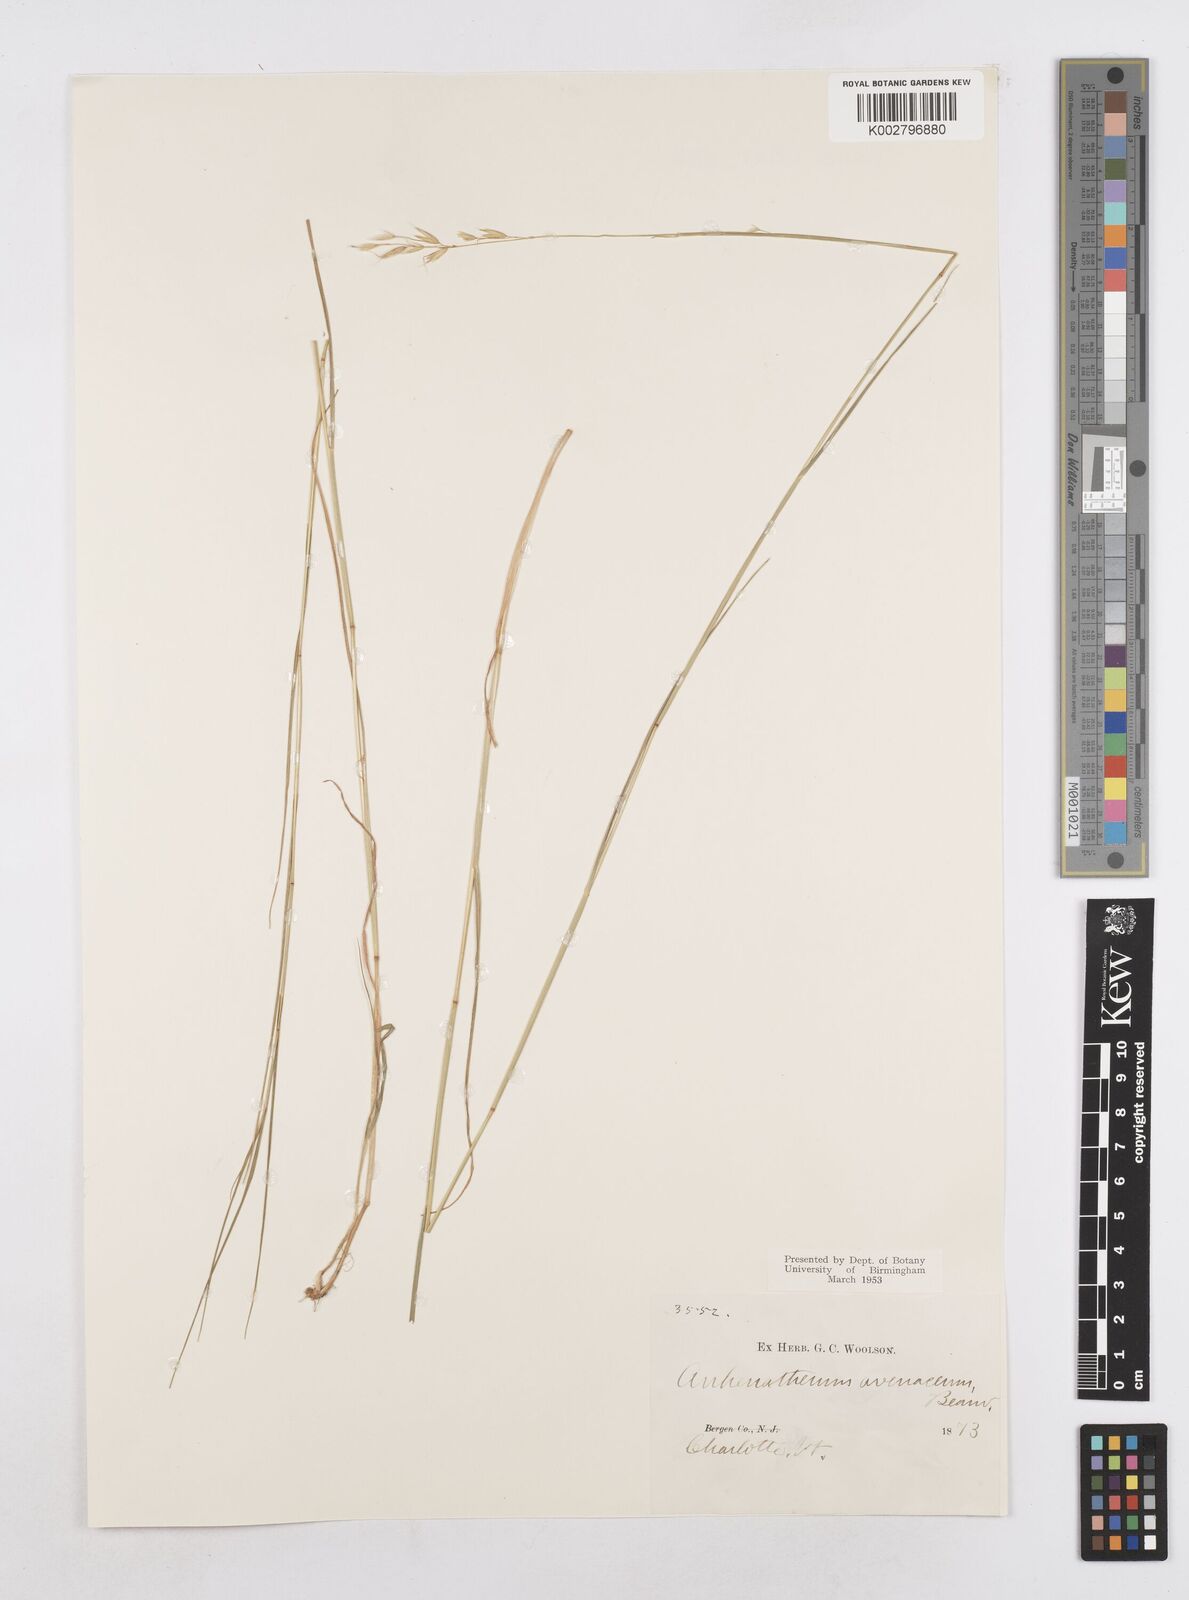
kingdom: Plantae
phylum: Tracheophyta
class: Liliopsida
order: Poales
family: Poaceae
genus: Arrhenatherum
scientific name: Arrhenatherum elatius
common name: Tall oatgrass
